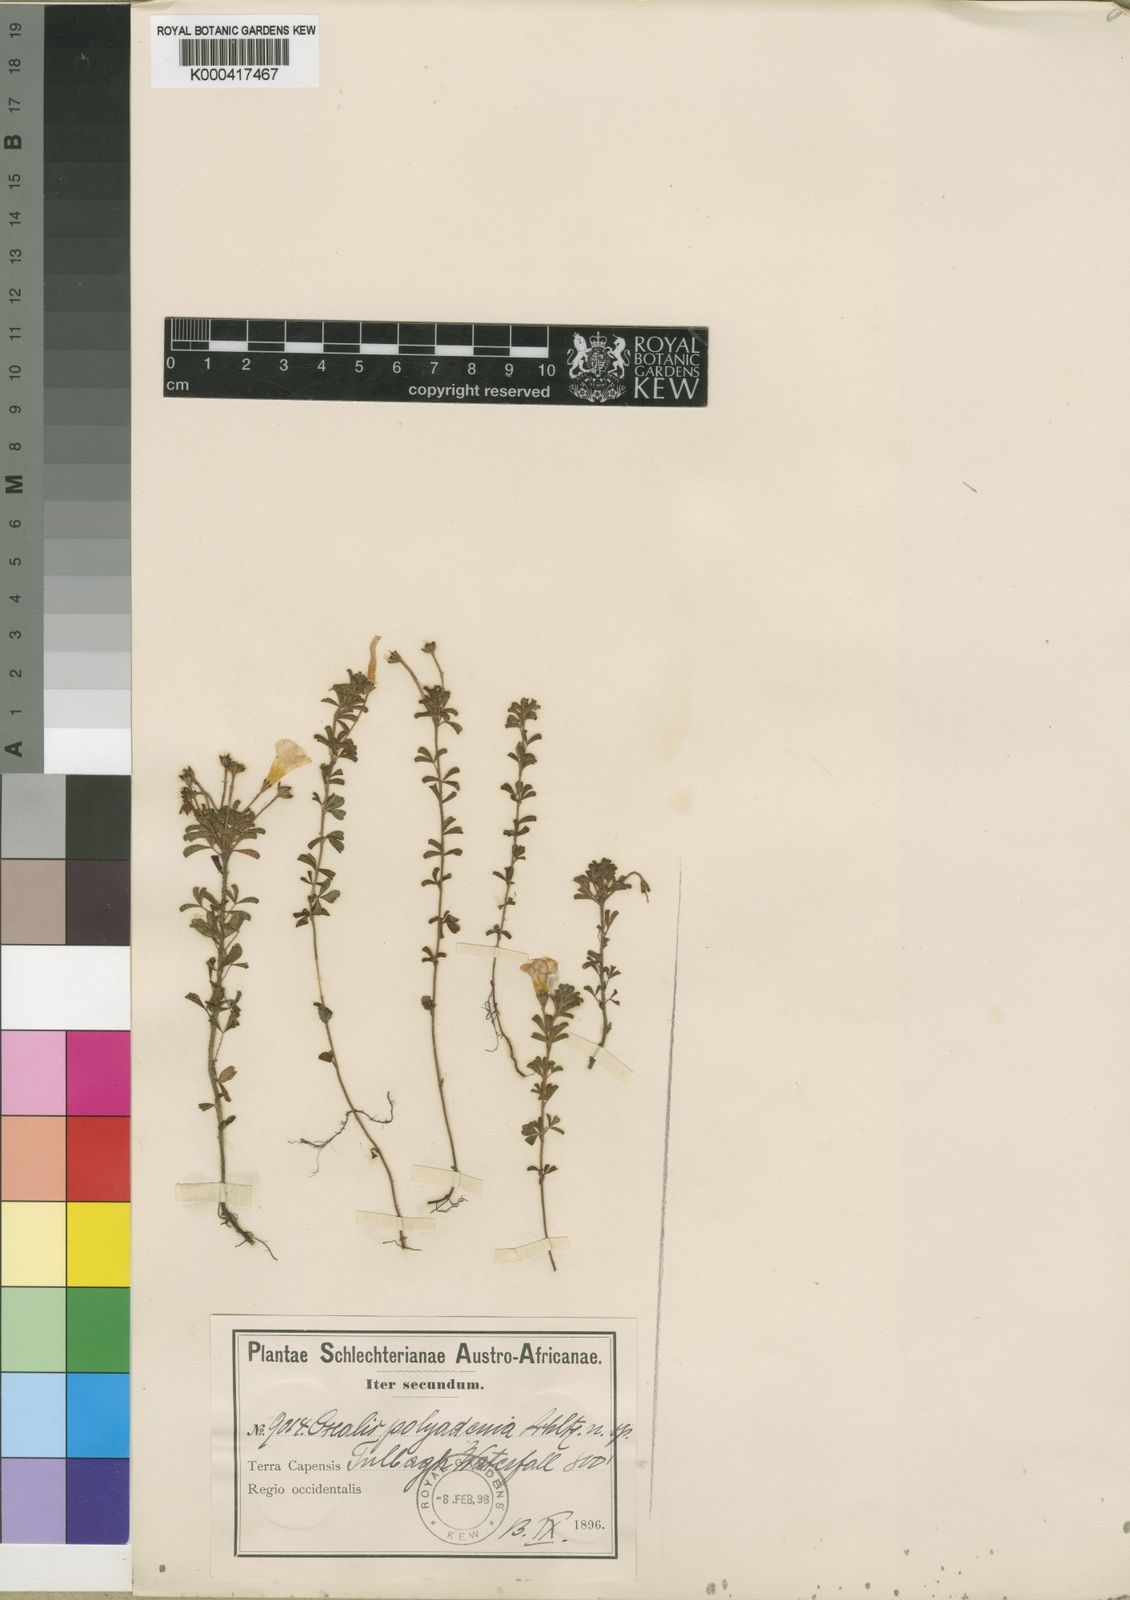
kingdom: Plantae
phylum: Tracheophyta
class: Magnoliopsida
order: Oxalidales
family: Oxalidaceae
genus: Oxalis
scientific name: Oxalis multicaulis
